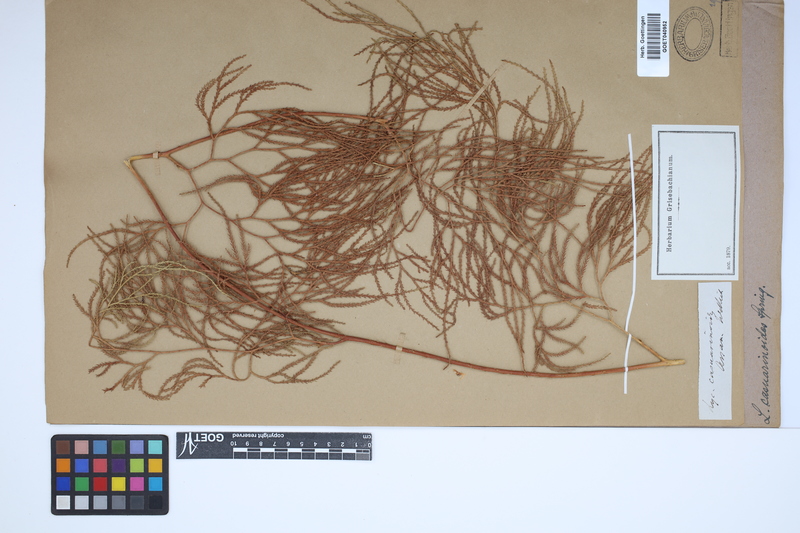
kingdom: Plantae
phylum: Tracheophyta
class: Lycopodiopsida
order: Lycopodiales
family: Lycopodiaceae
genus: Lycopodiastrum
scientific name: Lycopodiastrum casuarinoides
